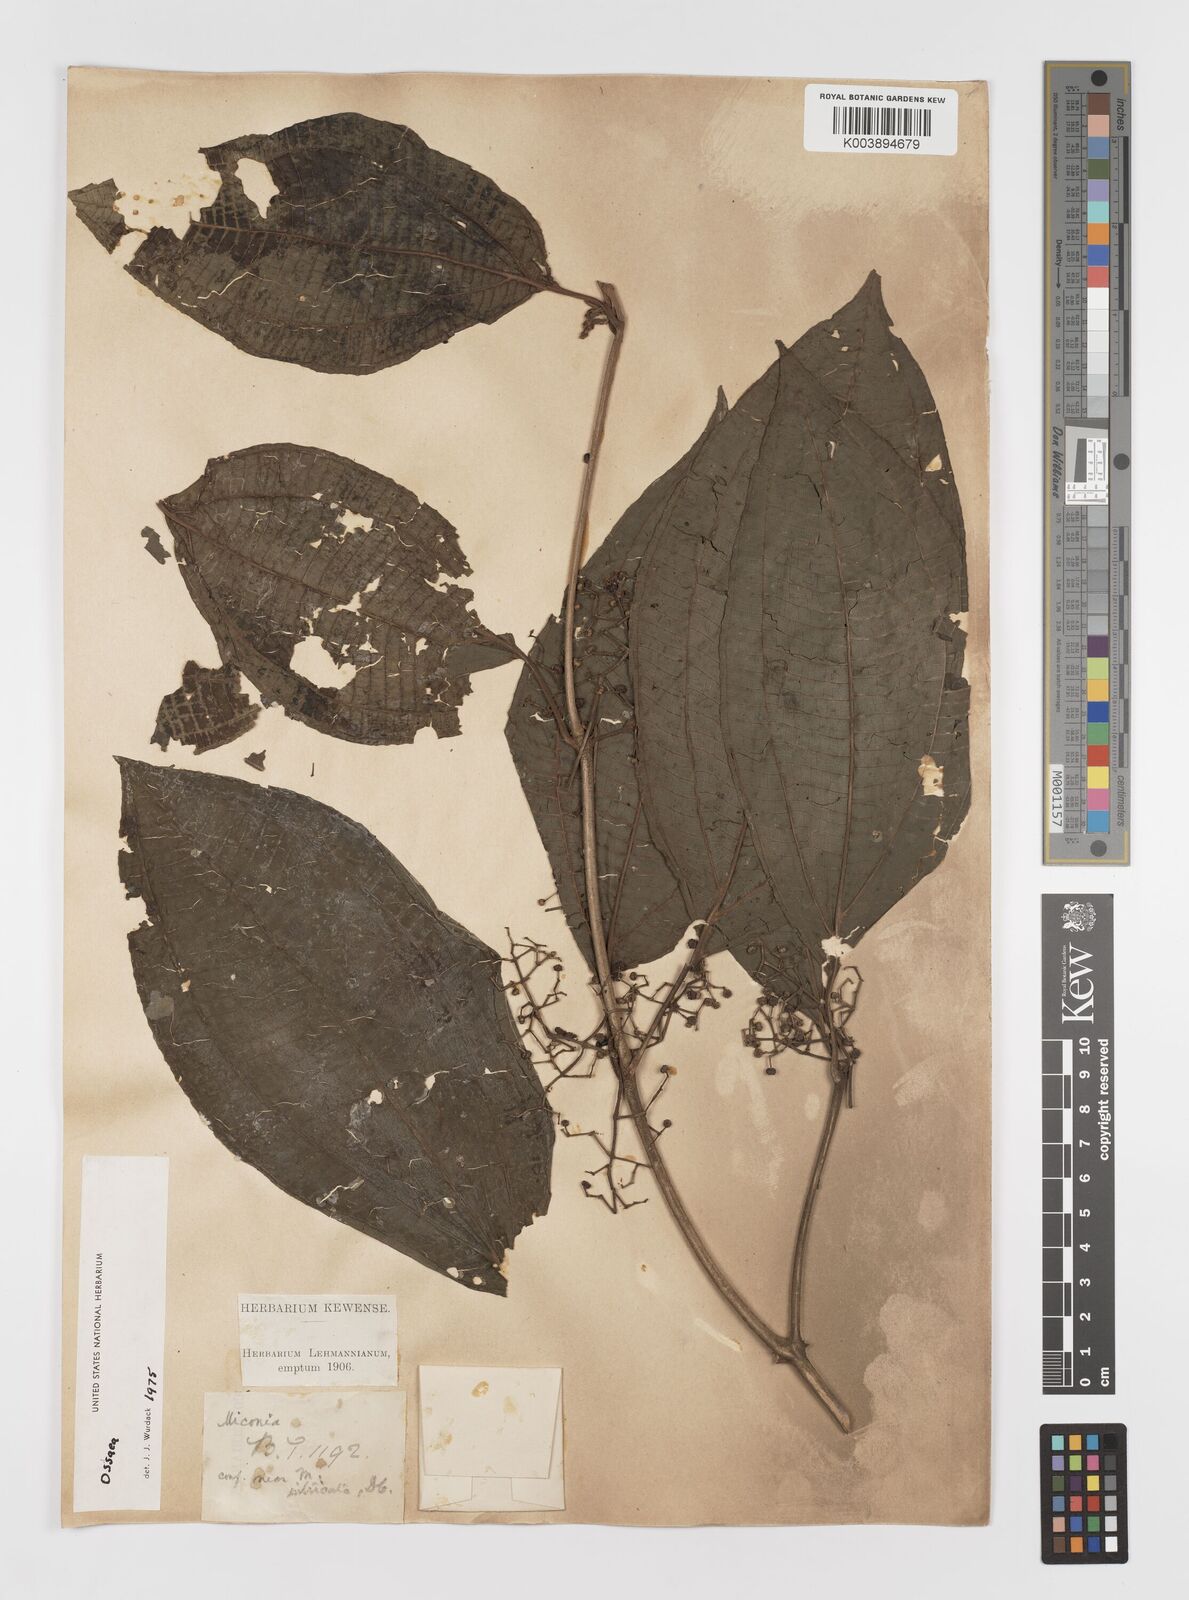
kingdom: Plantae
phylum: Tracheophyta
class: Magnoliopsida
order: Myrtales
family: Melastomataceae
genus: Ossaea
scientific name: Ossaea
